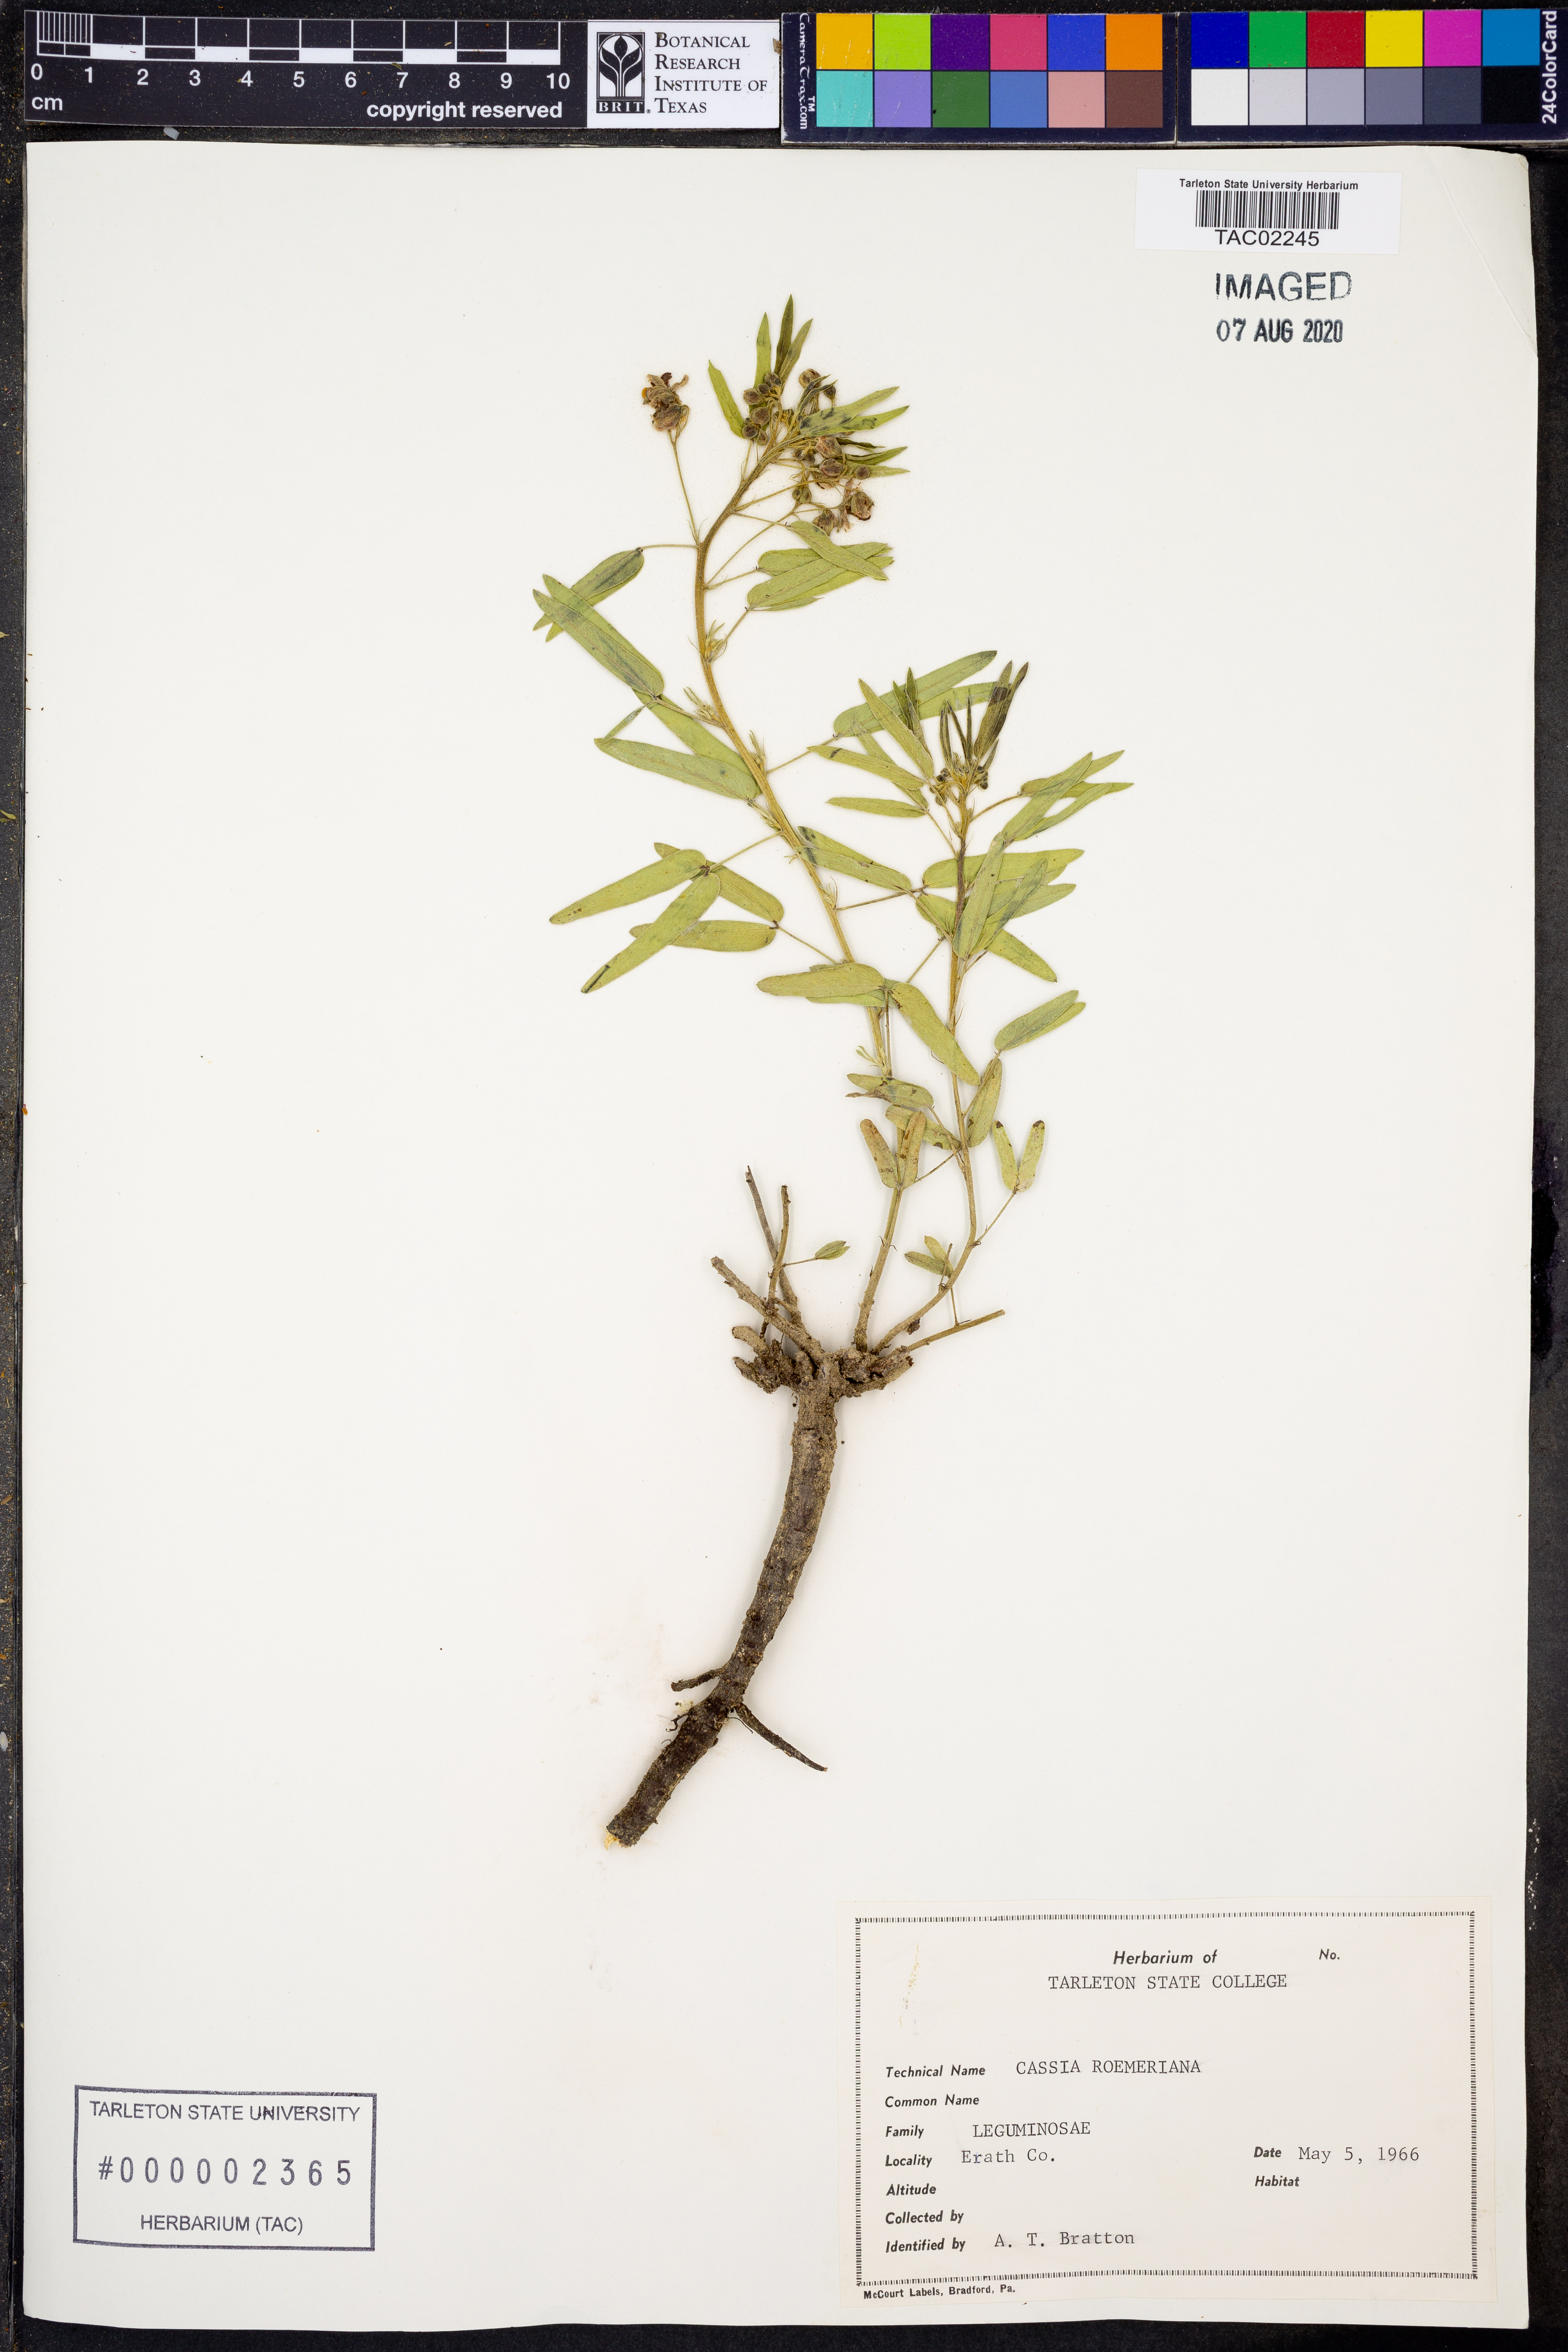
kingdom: Plantae
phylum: Tracheophyta
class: Magnoliopsida
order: Fabales
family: Fabaceae
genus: Senna
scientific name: Senna roemeriana
